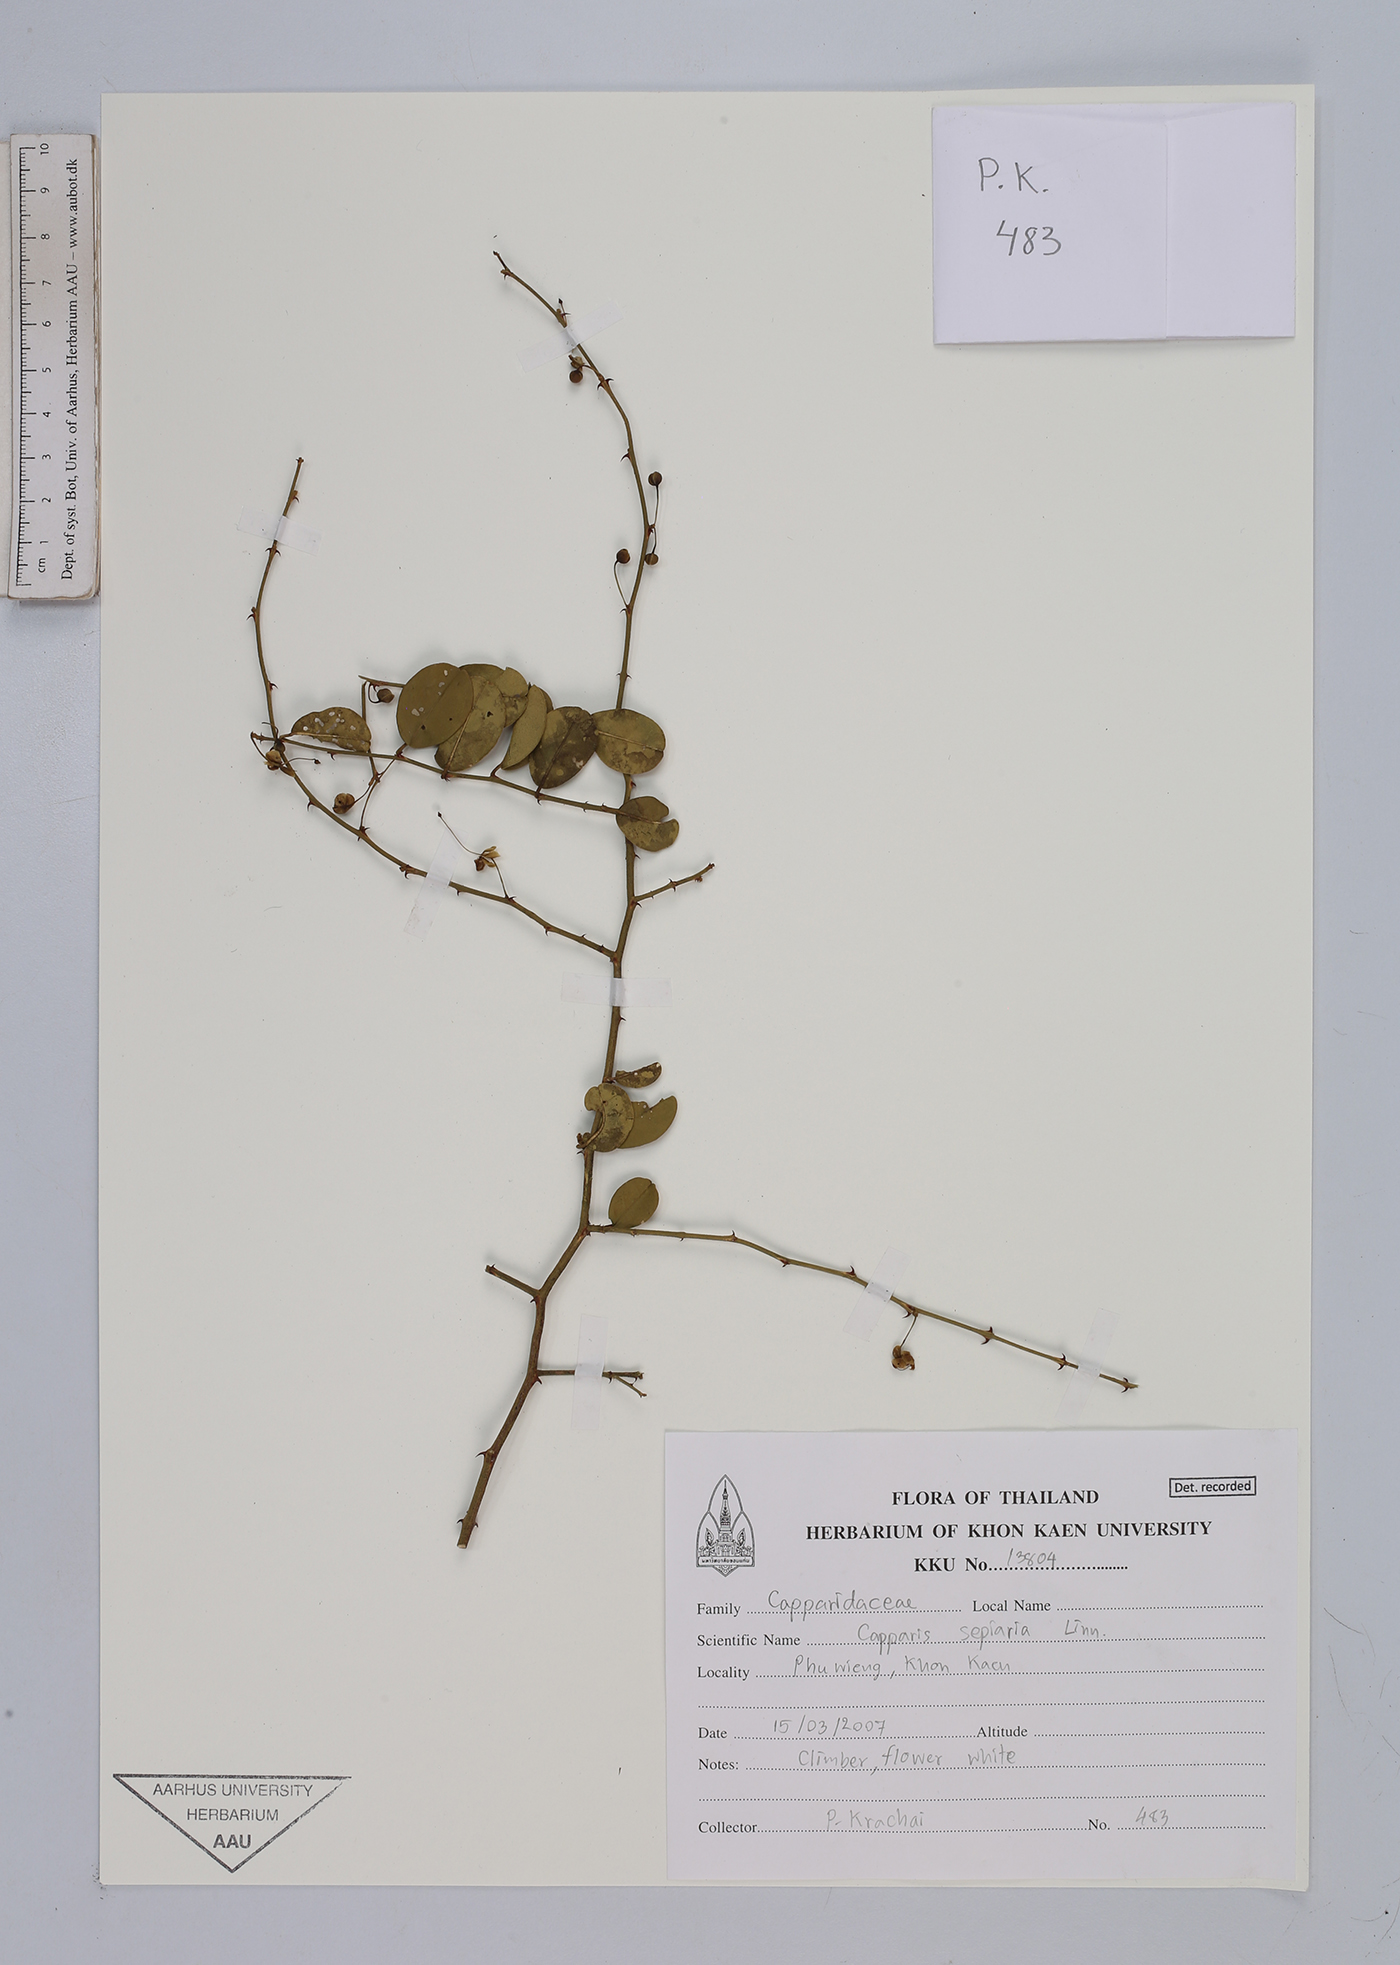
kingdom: Plantae
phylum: Tracheophyta
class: Magnoliopsida
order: Brassicales
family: Capparaceae
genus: Capparis
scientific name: Capparis sepiaria
